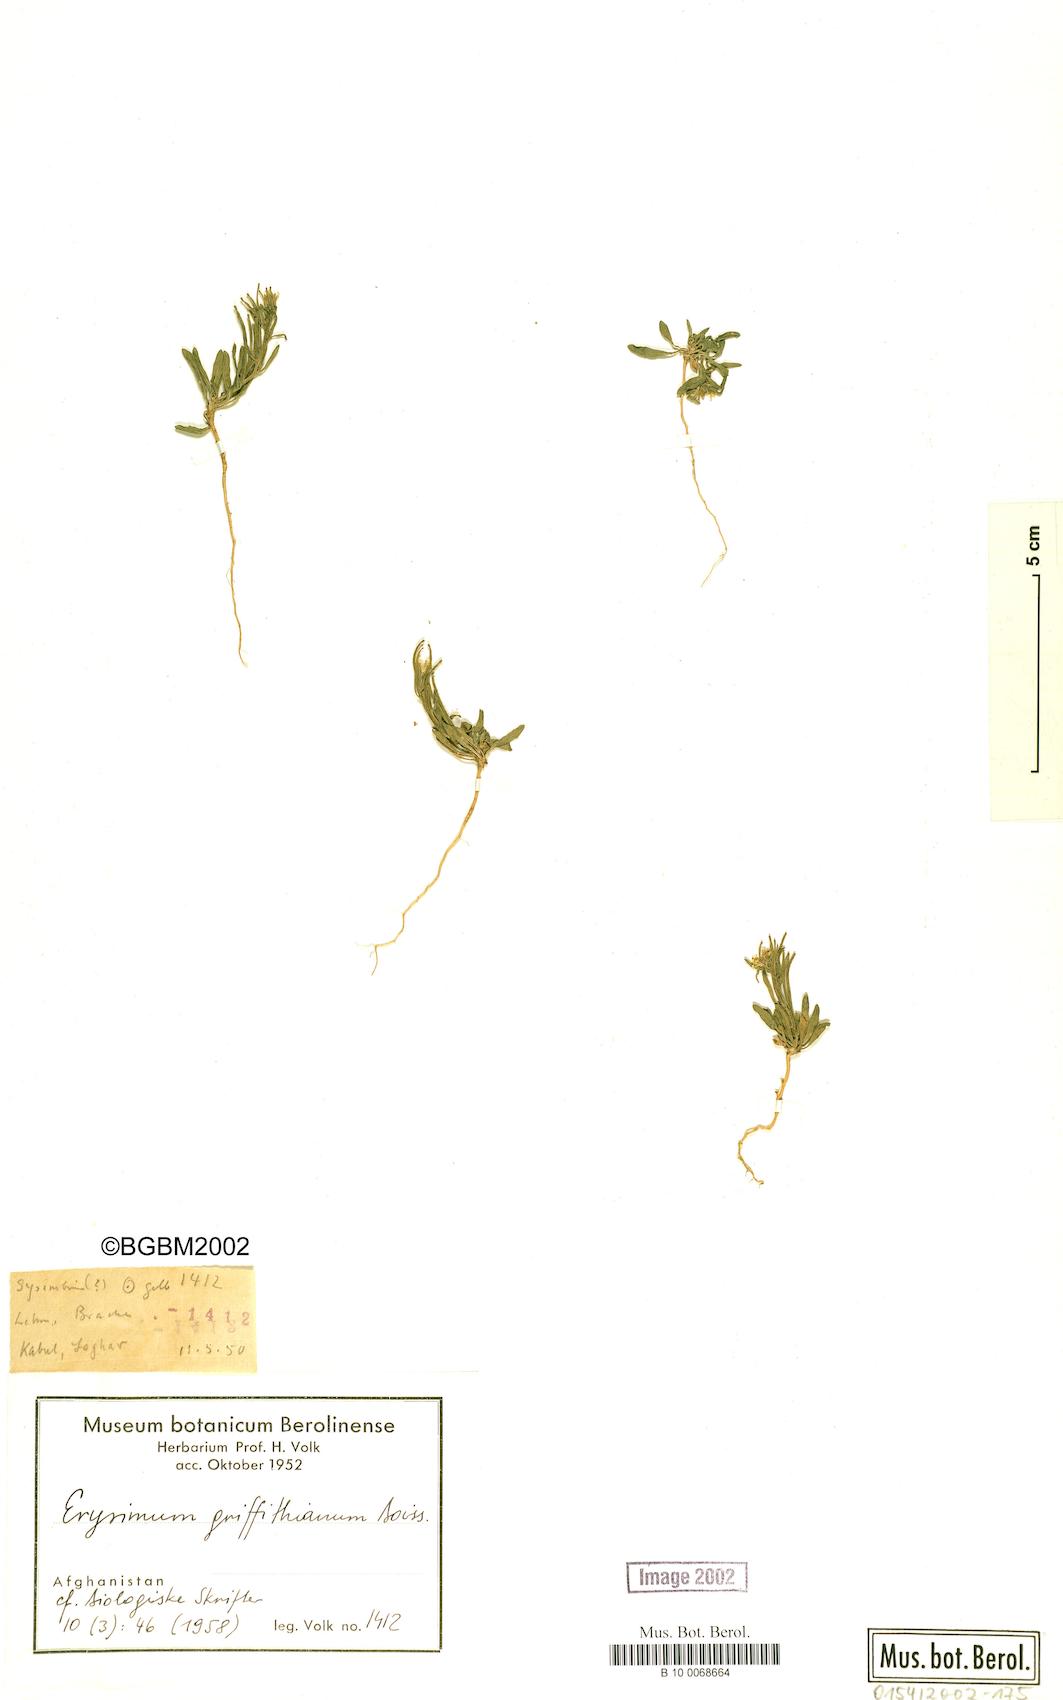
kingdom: Plantae
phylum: Tracheophyta
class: Magnoliopsida
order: Brassicales
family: Brassicaceae
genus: Erysimum
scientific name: Erysimum sisymbrioides
